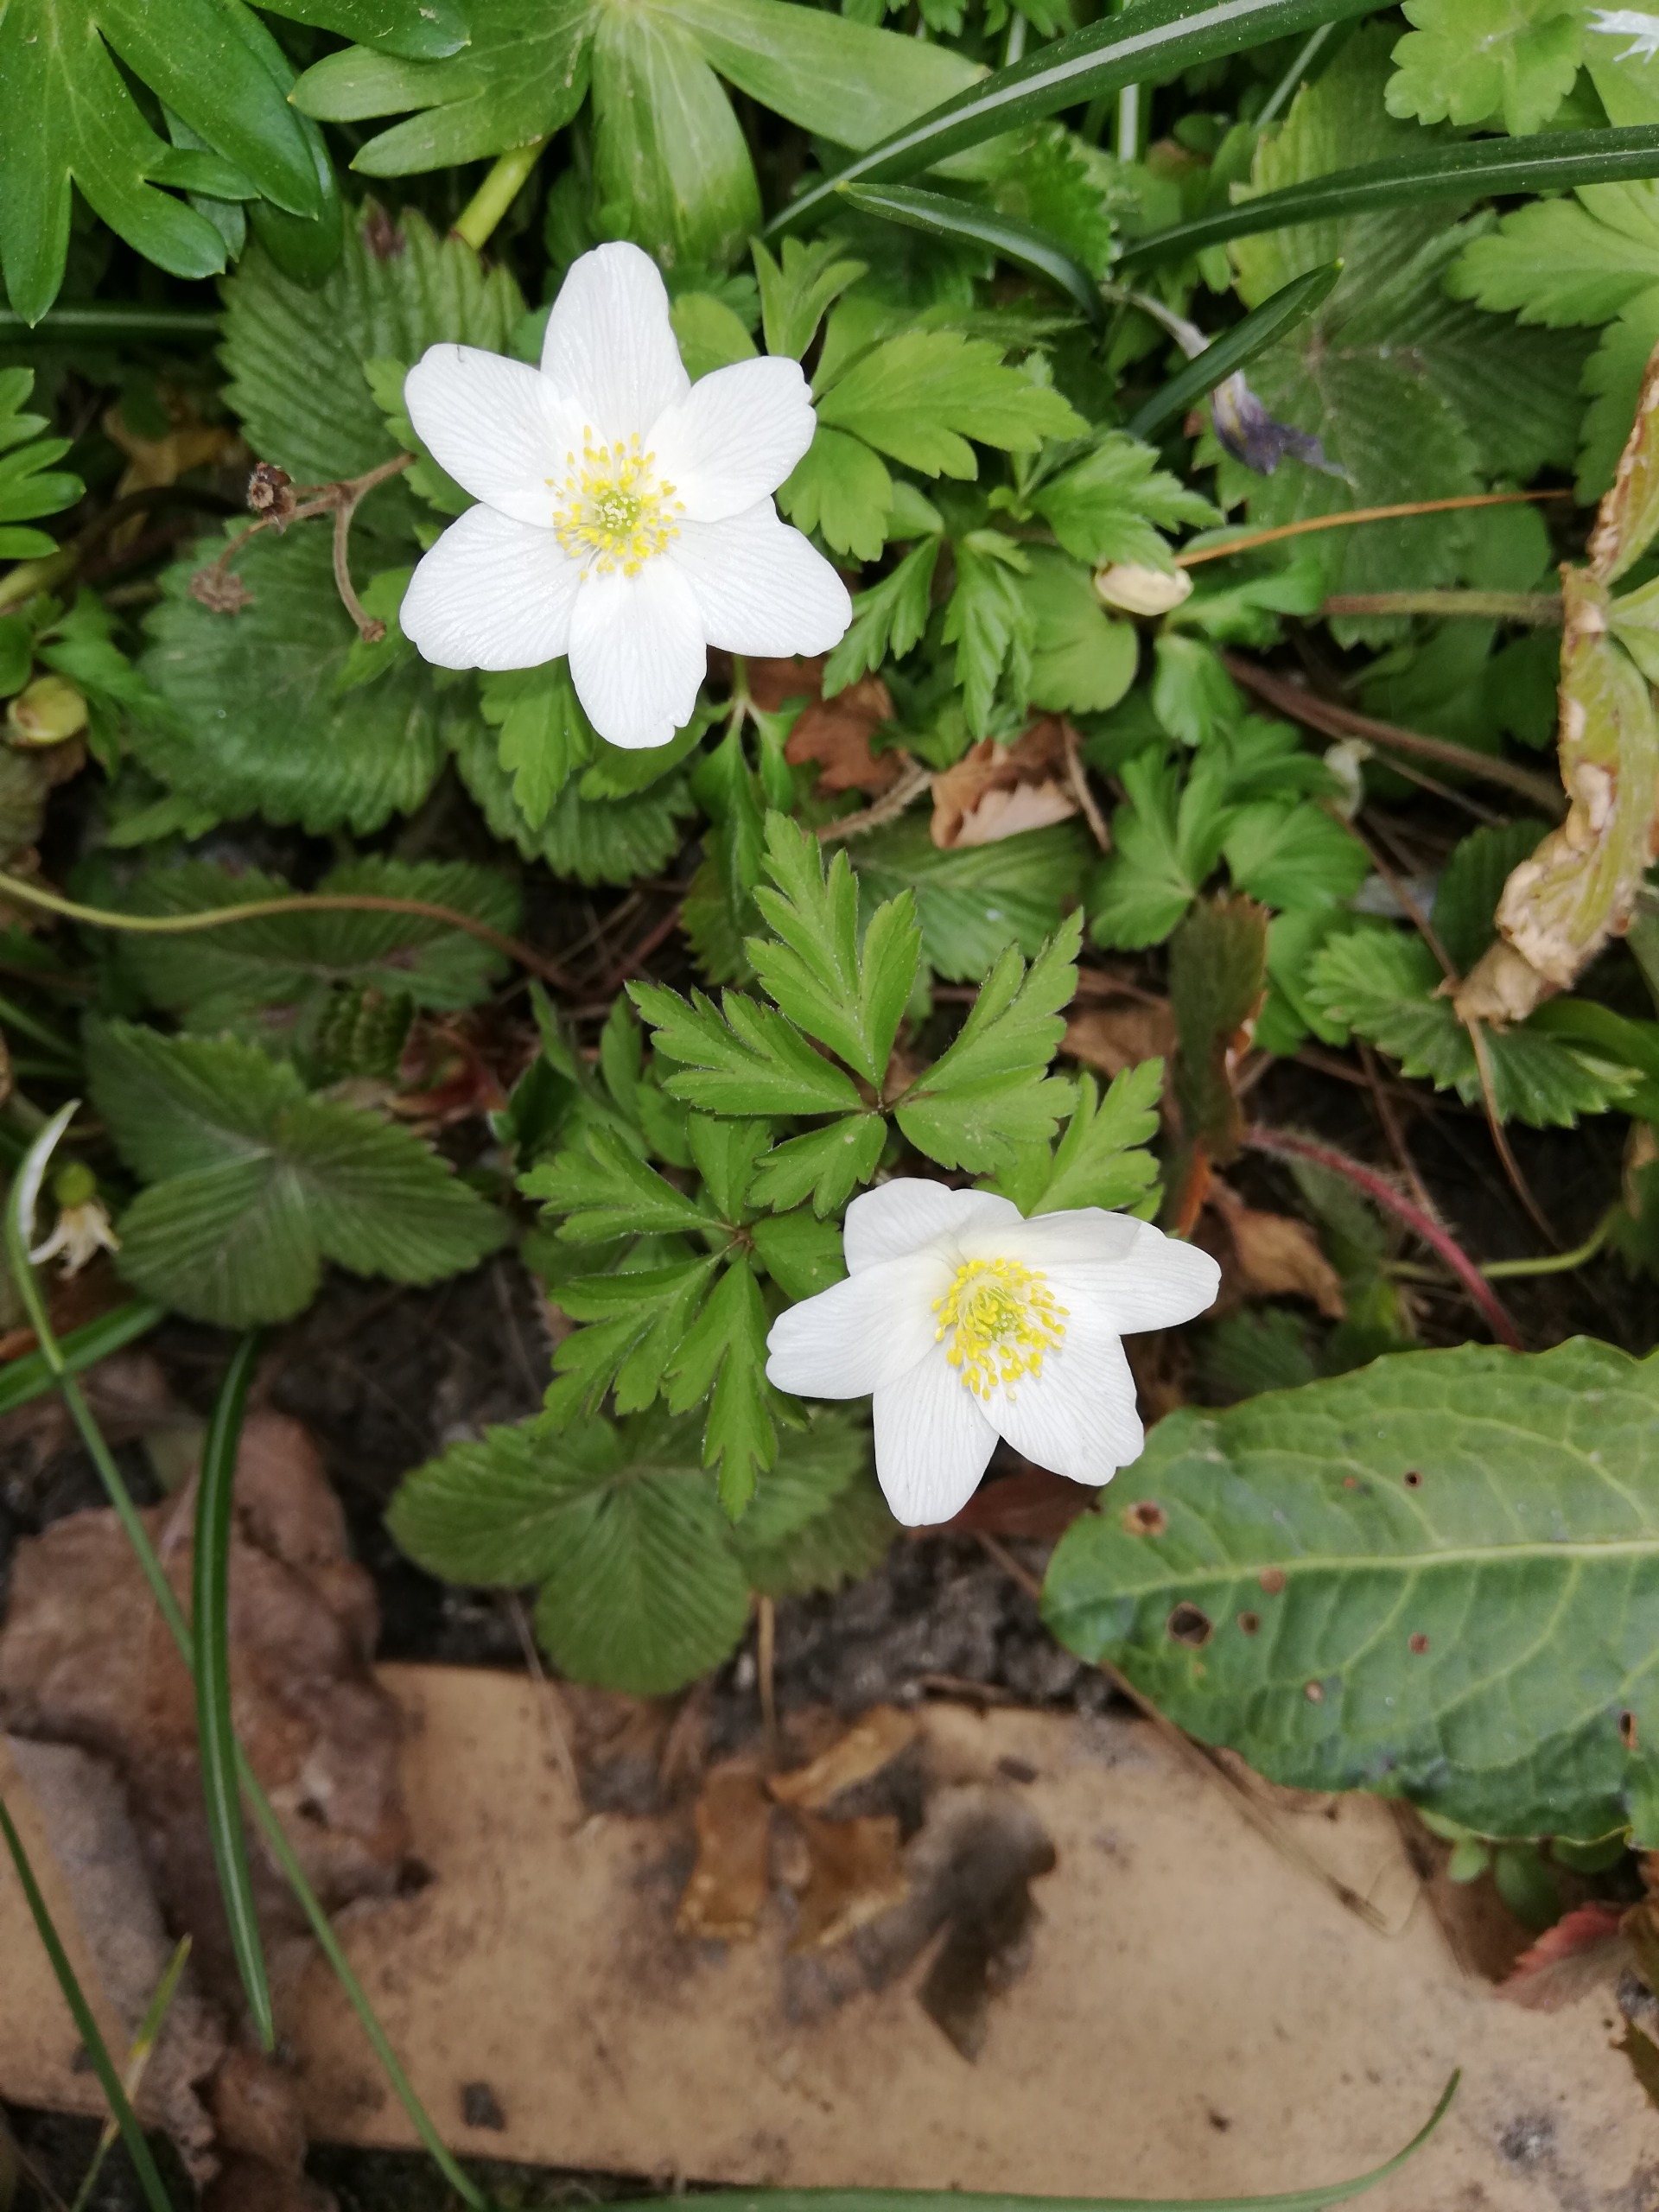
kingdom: Plantae
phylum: Tracheophyta
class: Magnoliopsida
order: Ranunculales
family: Ranunculaceae
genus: Anemone
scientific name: Anemone nemorosa
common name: Hvid anemone
